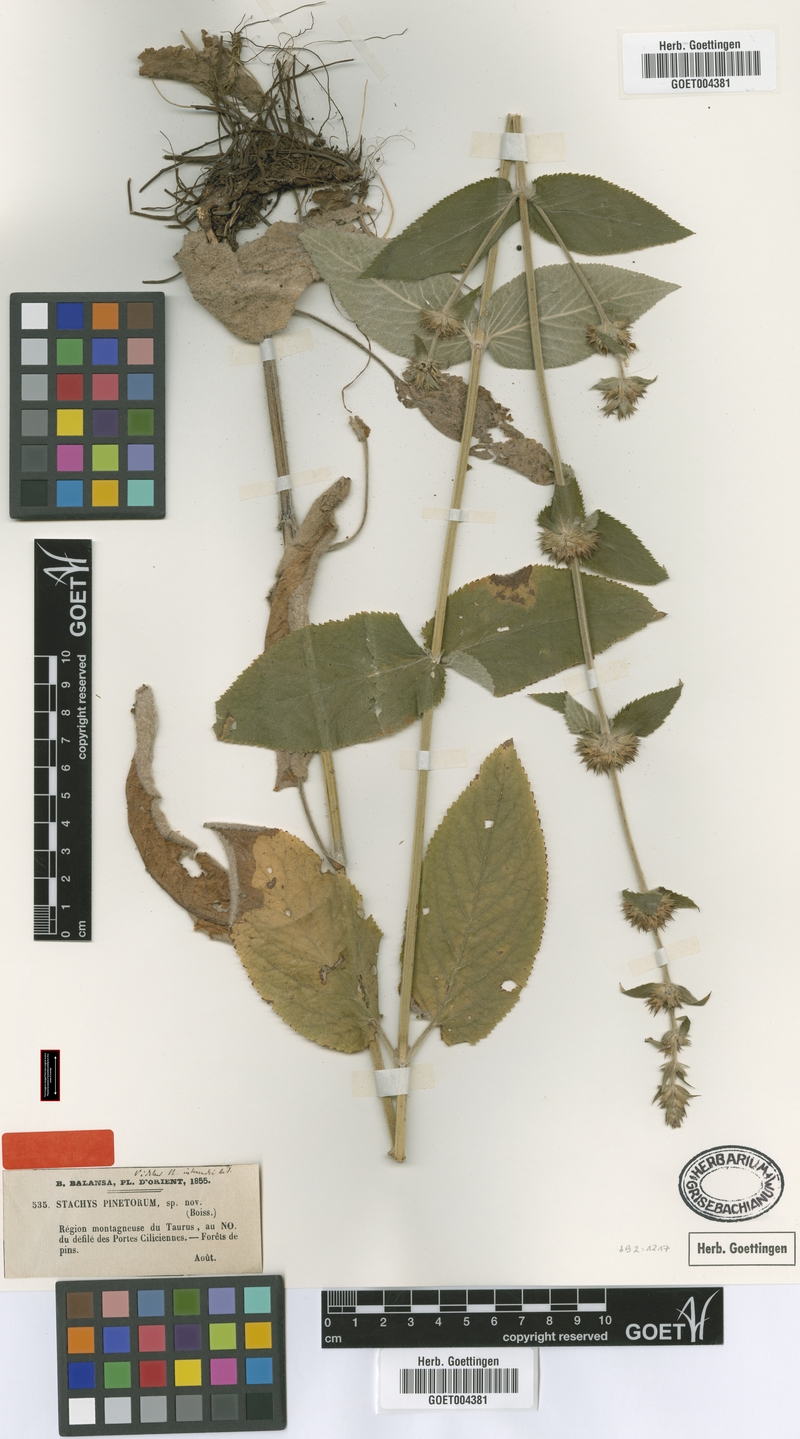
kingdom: Plantae
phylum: Tracheophyta
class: Magnoliopsida
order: Lamiales
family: Lamiaceae
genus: Stachys
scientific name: Stachys pinetorum
